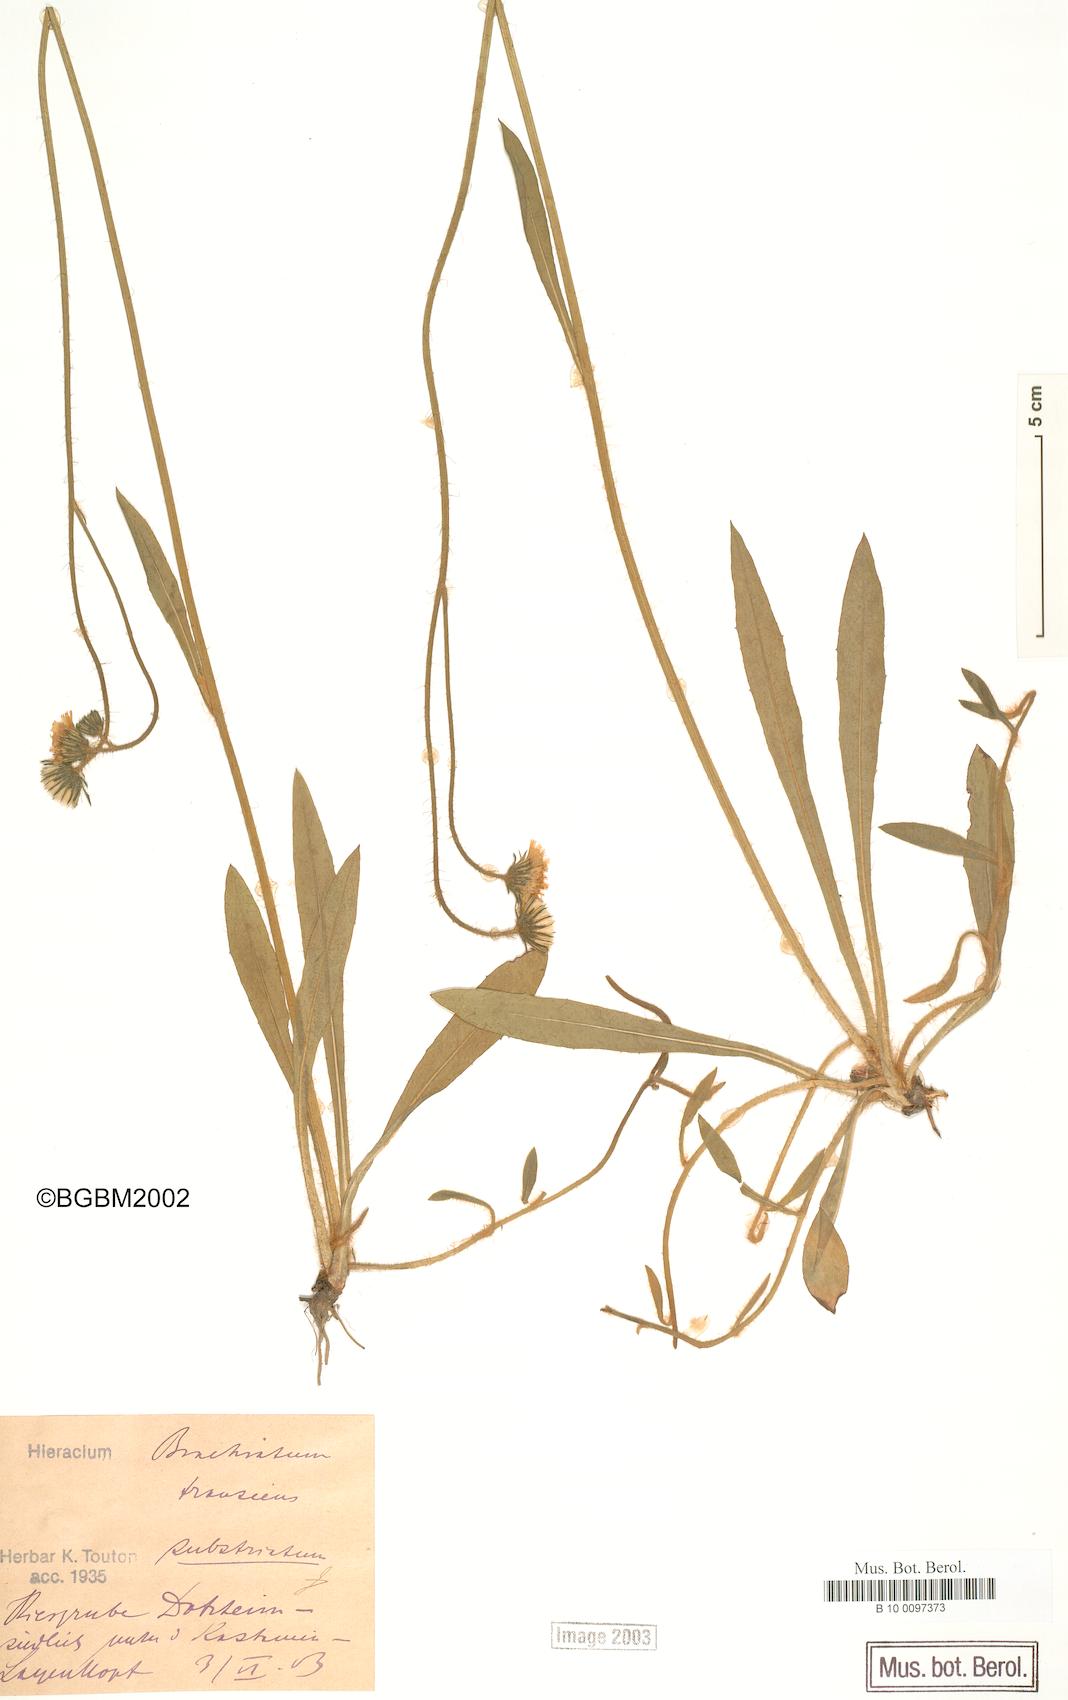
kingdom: Plantae
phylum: Tracheophyta
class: Magnoliopsida
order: Asterales
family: Asteraceae
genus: Pilosella
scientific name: Pilosella acutifolia
